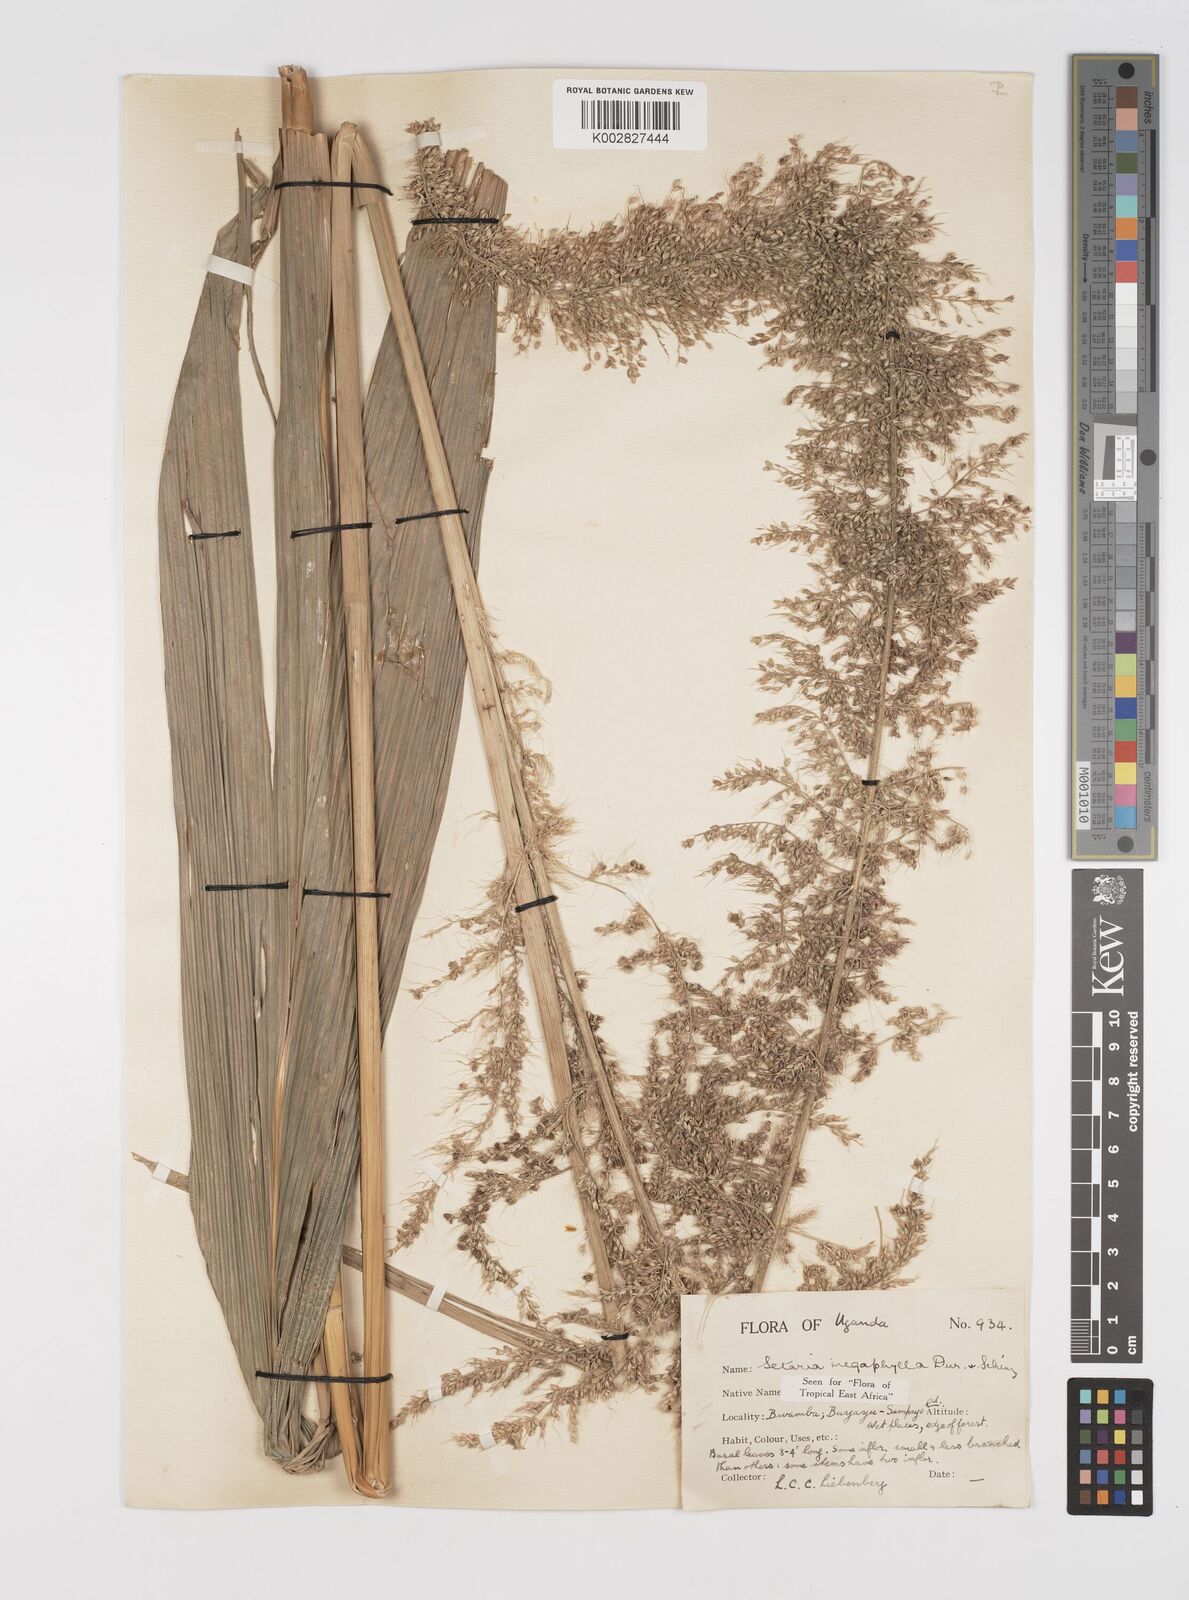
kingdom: Plantae
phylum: Tracheophyta
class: Liliopsida
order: Poales
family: Poaceae
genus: Setaria
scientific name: Setaria megaphylla
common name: Bigleaf bristlegrass
